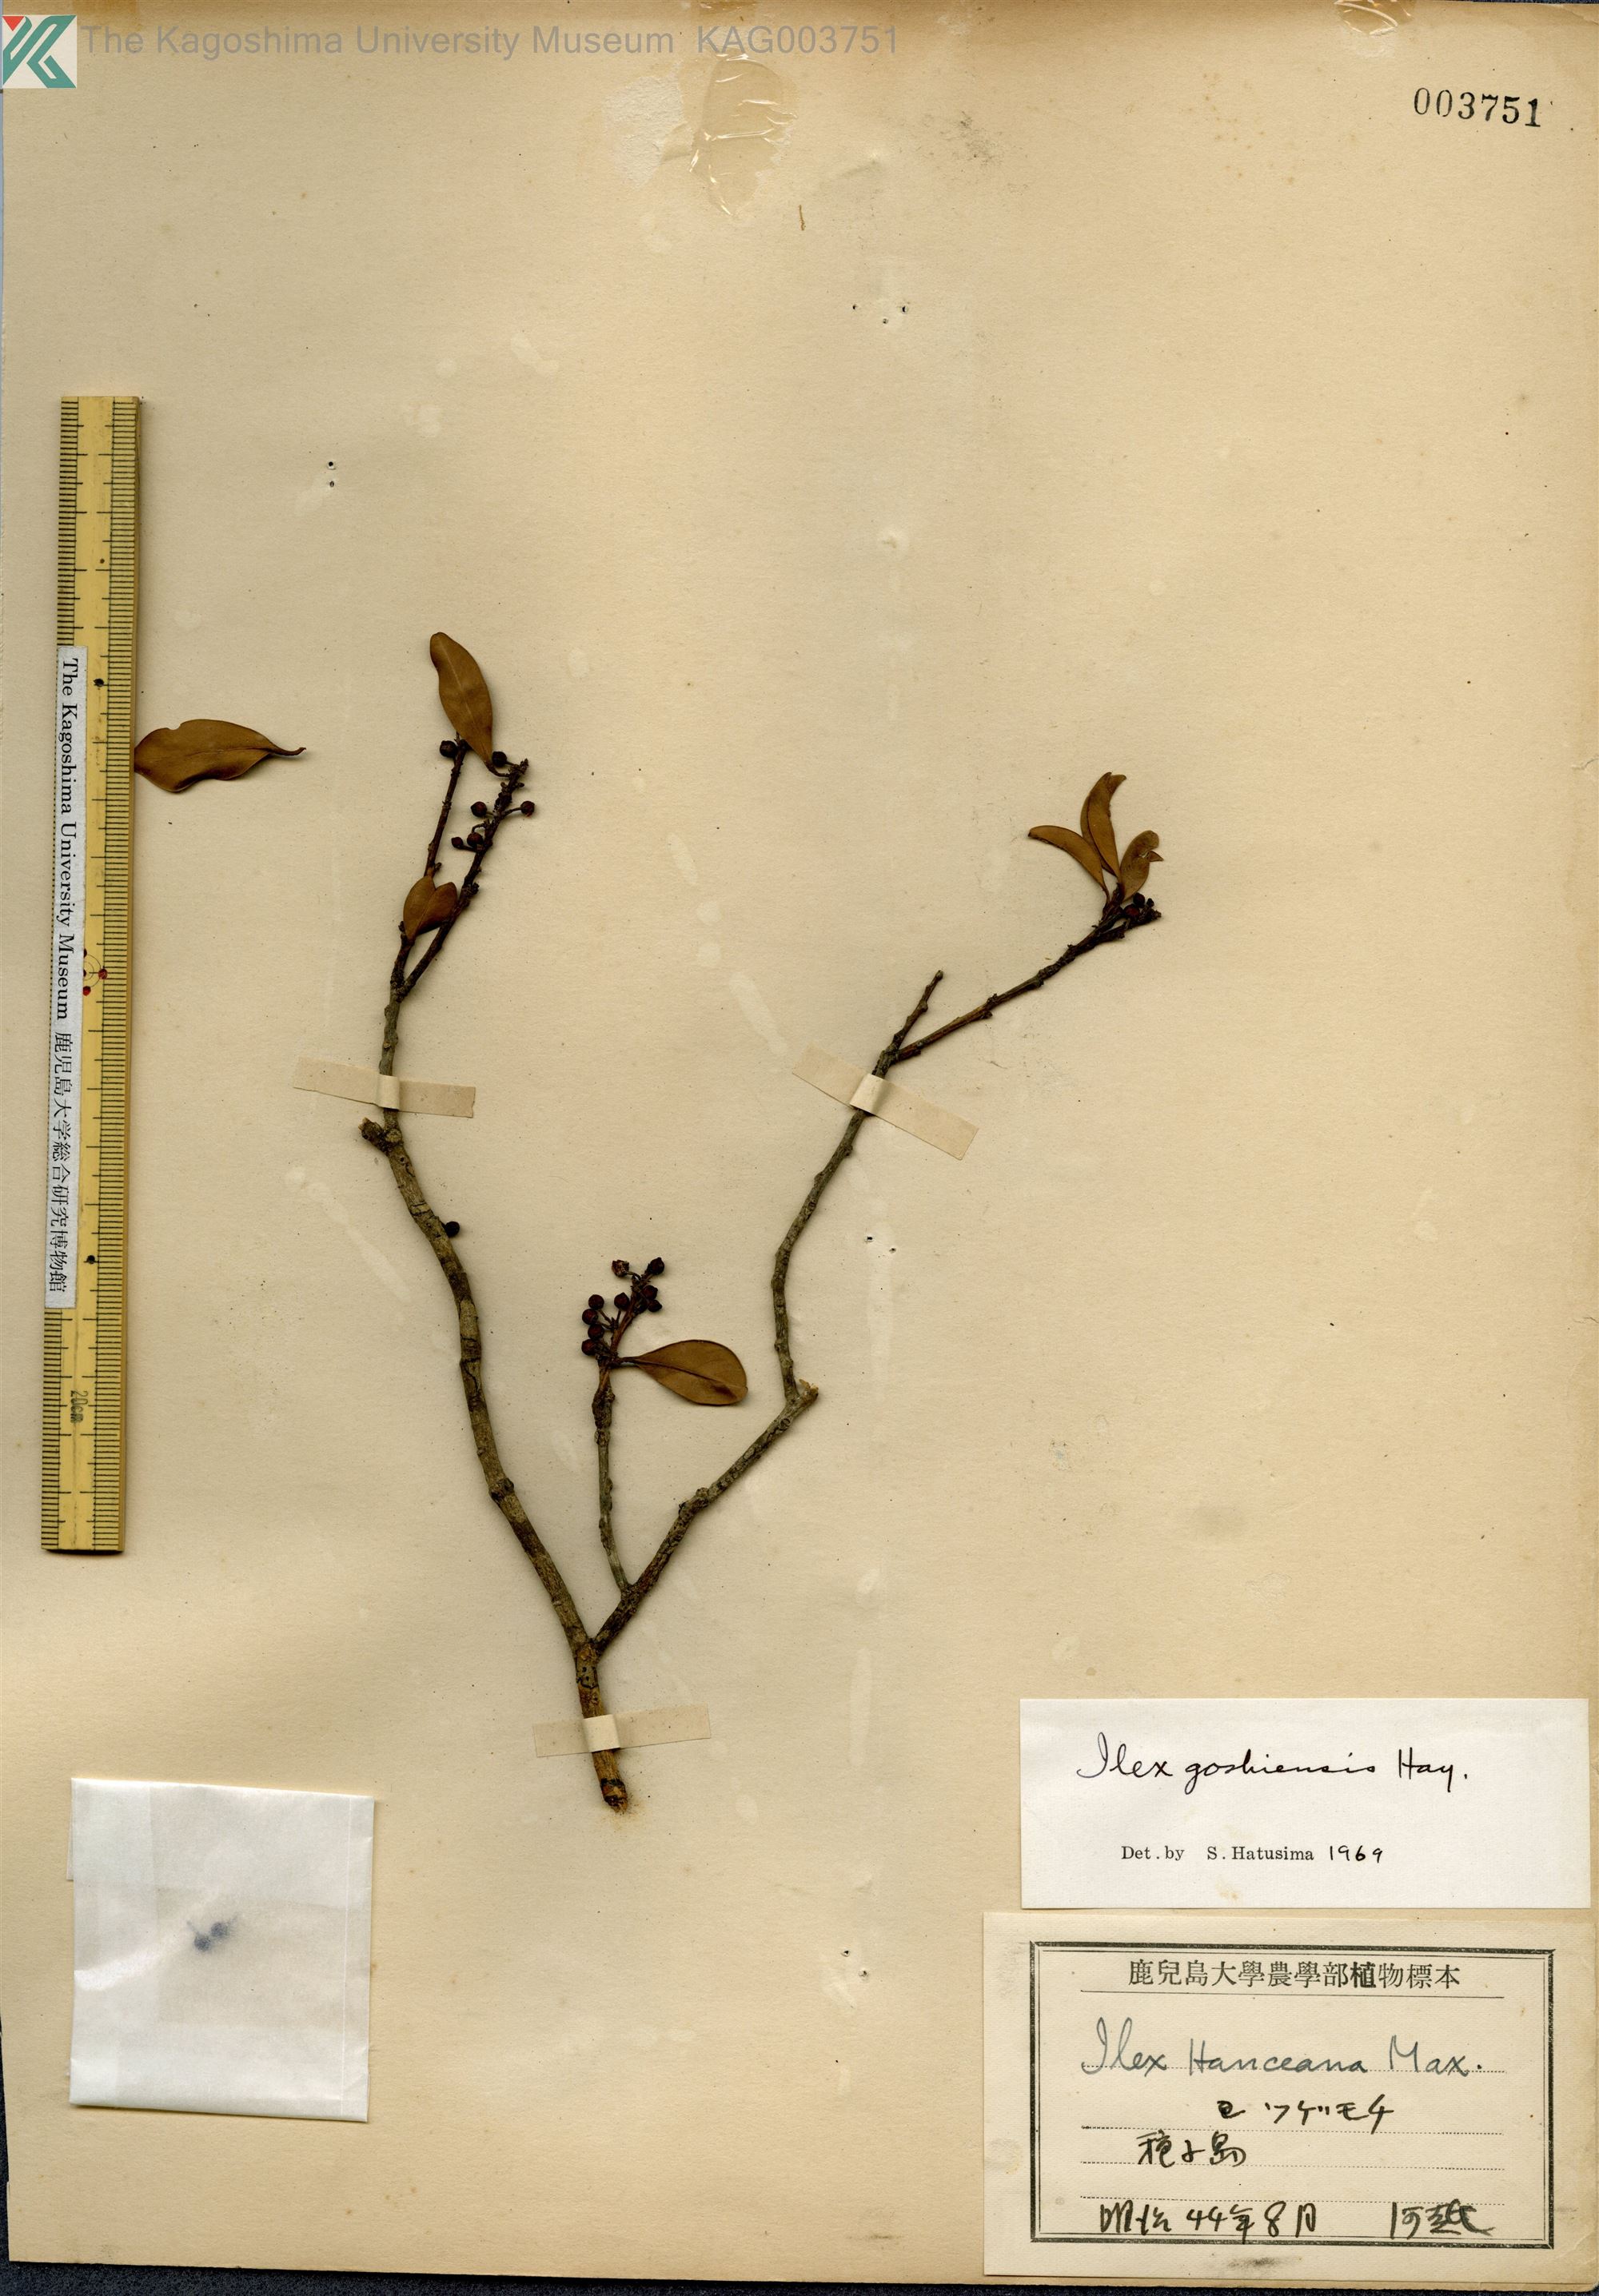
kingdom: Plantae
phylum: Tracheophyta
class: Magnoliopsida
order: Aquifoliales
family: Aquifoliaceae
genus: Ilex
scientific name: Ilex goshiensis
